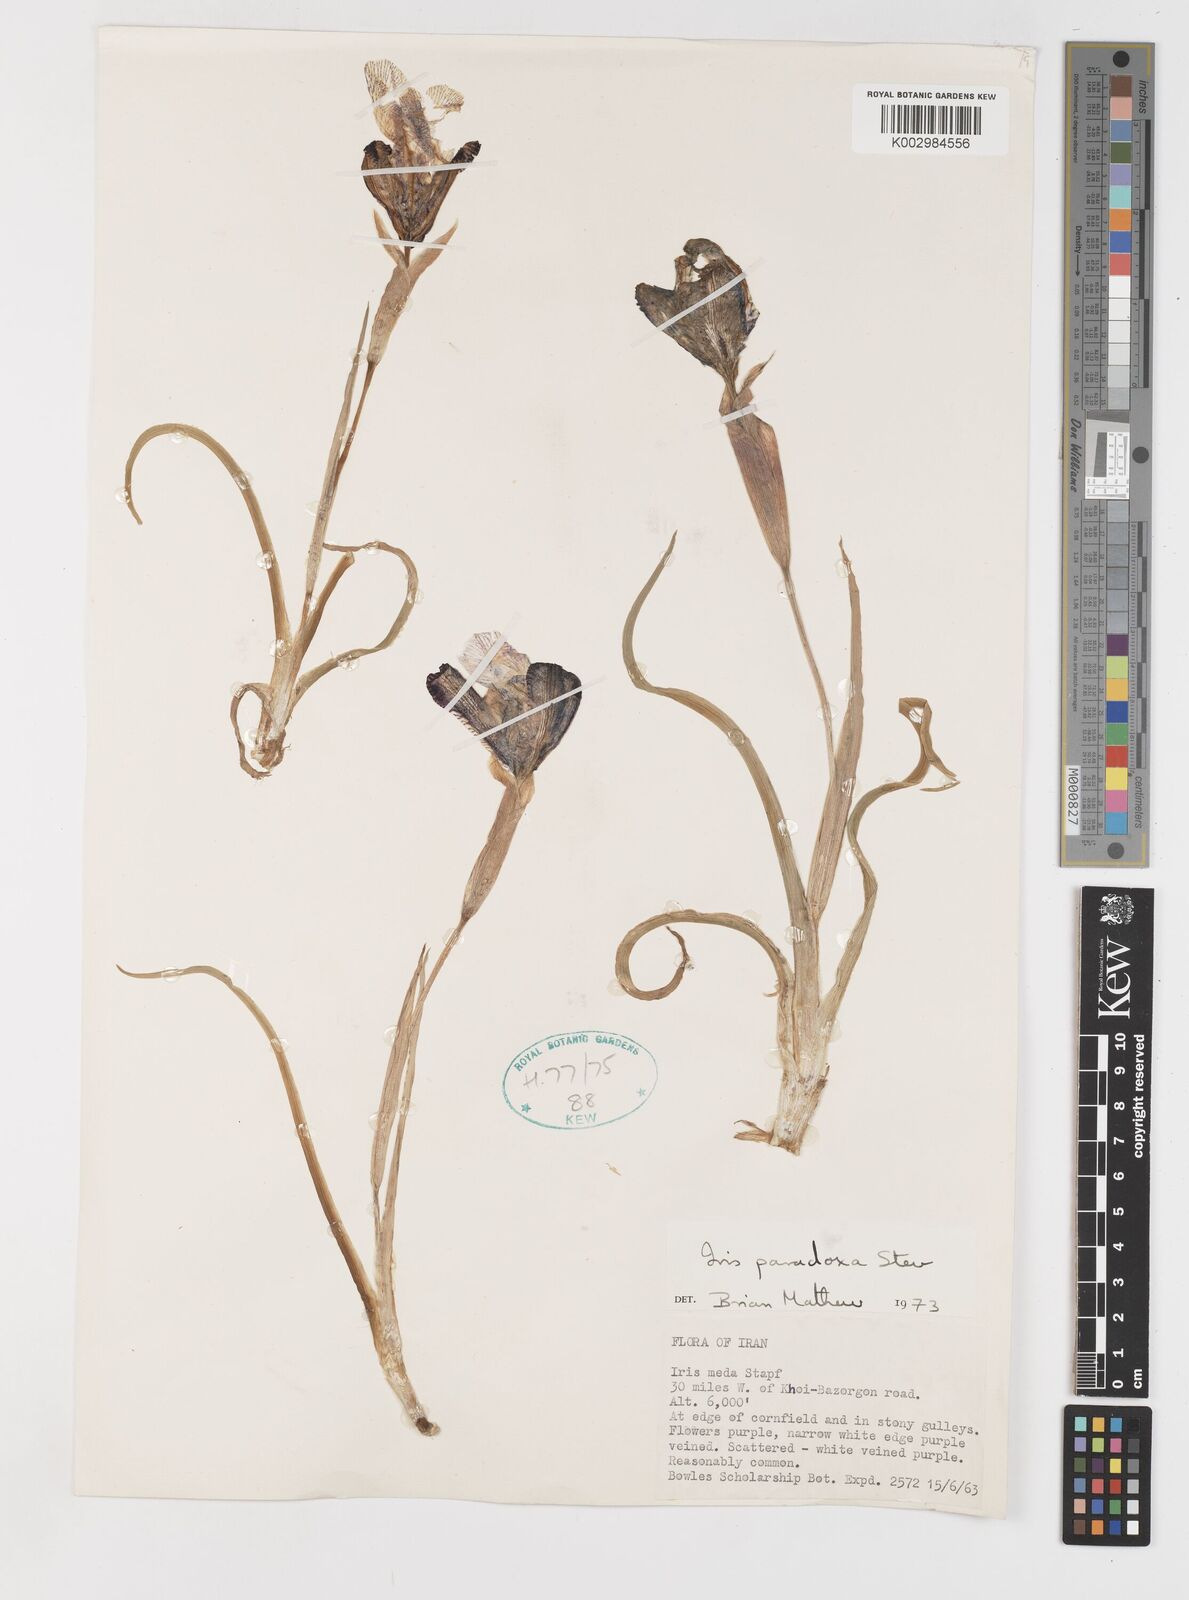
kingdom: Plantae
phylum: Tracheophyta
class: Liliopsida
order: Asparagales
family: Iridaceae
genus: Iris
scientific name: Iris paradoxa
